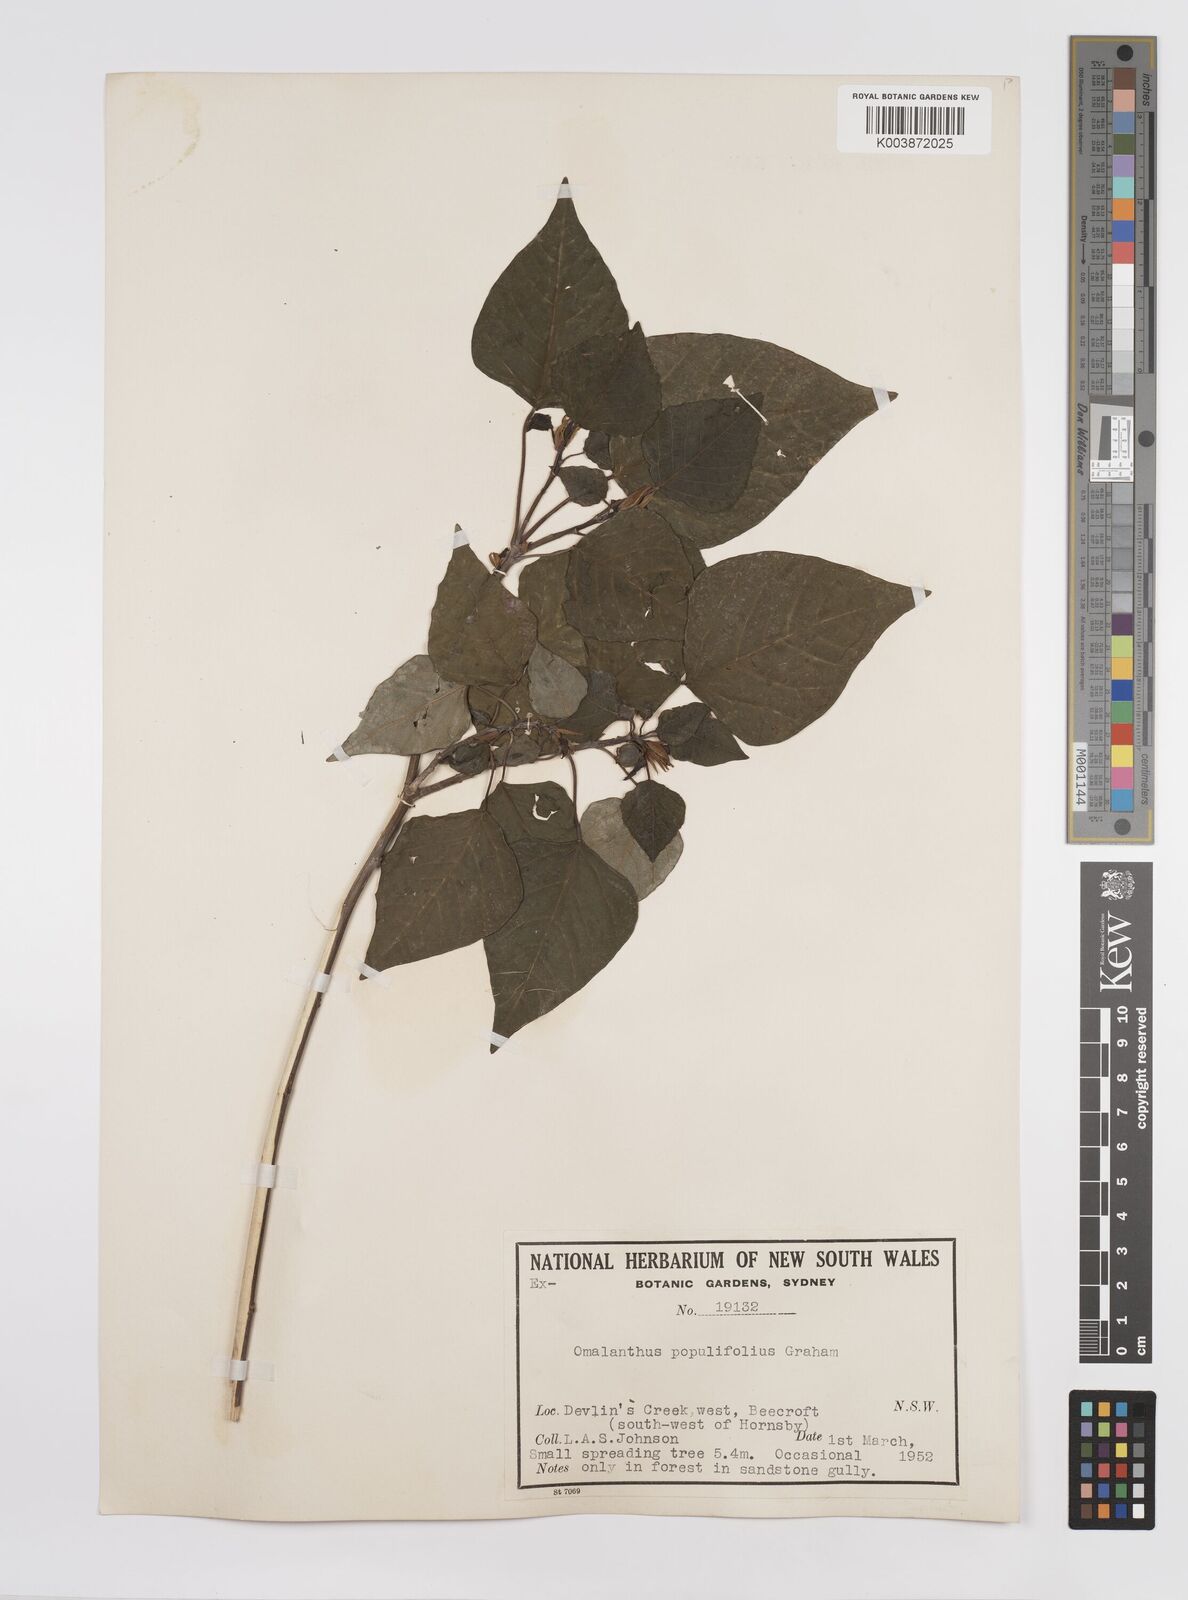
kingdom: Plantae
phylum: Tracheophyta
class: Magnoliopsida
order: Malpighiales
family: Euphorbiaceae
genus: Homalanthus
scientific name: Homalanthus populifolius
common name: Queensland poplar
